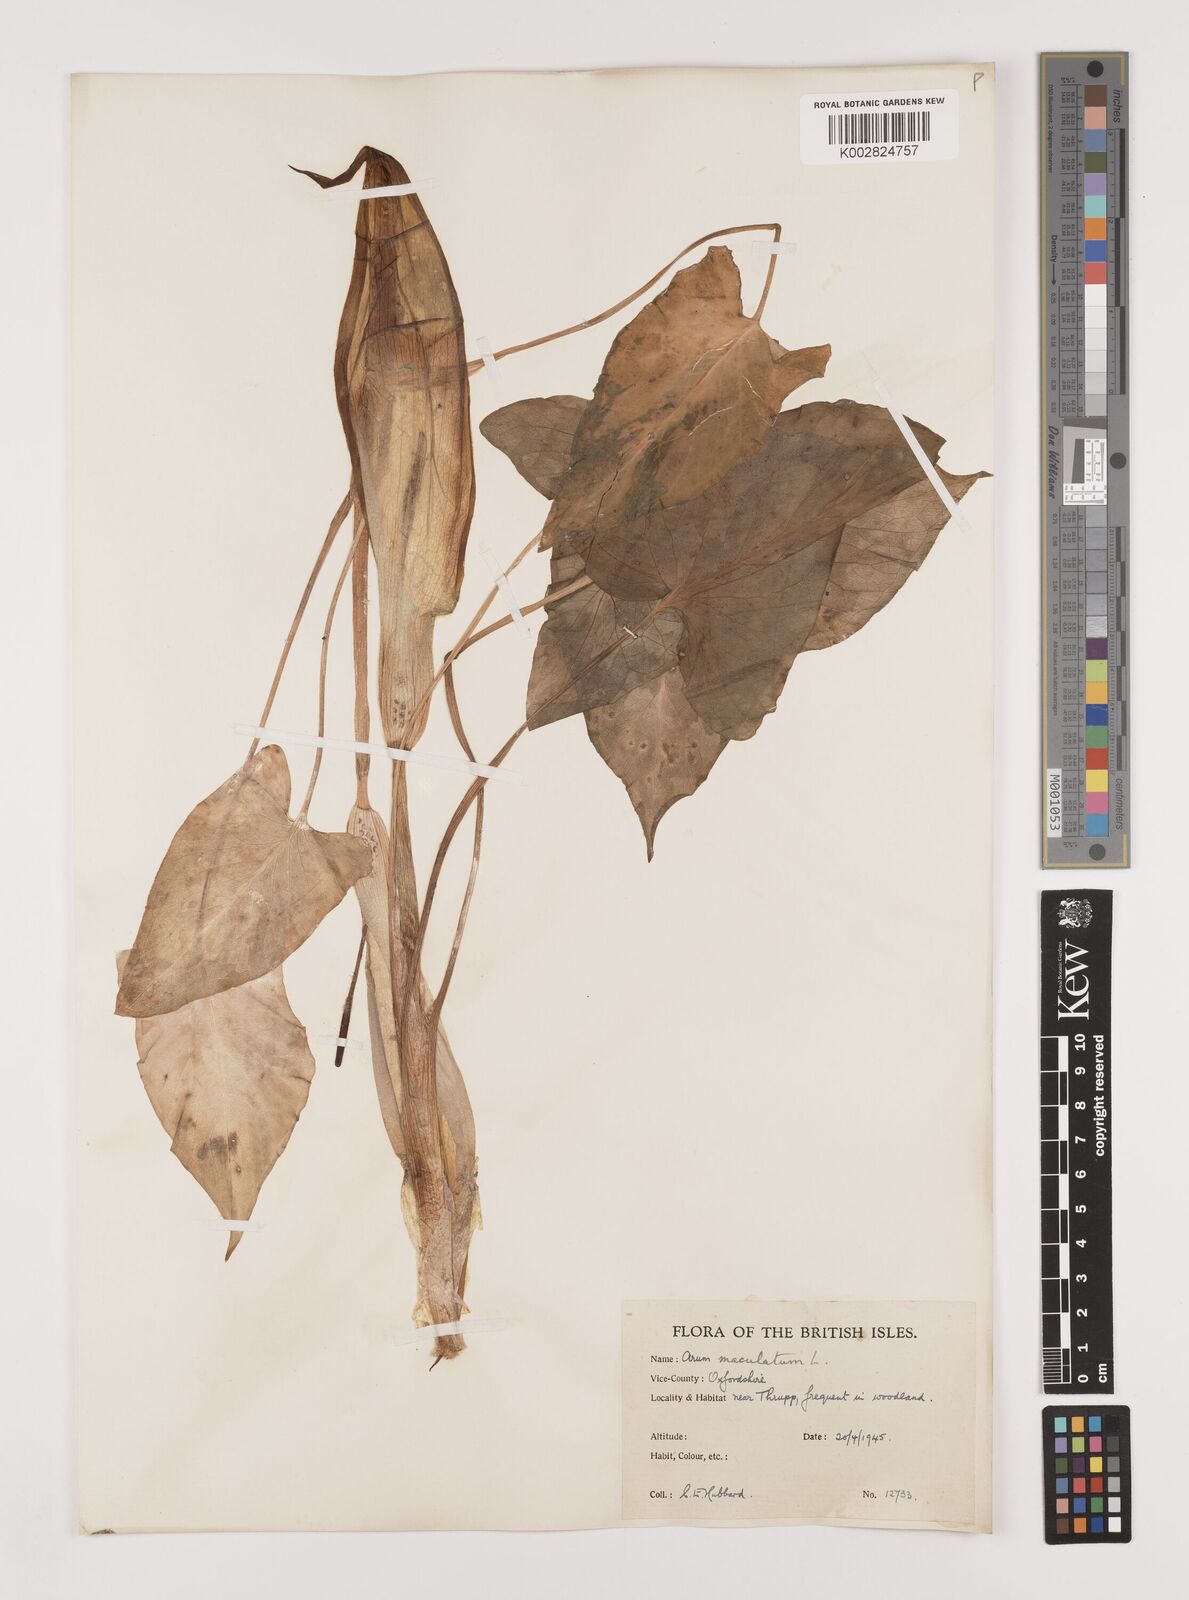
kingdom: Plantae
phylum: Tracheophyta
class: Liliopsida
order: Alismatales
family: Araceae
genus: Arum
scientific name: Arum maculatum
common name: Lords-and-ladies
